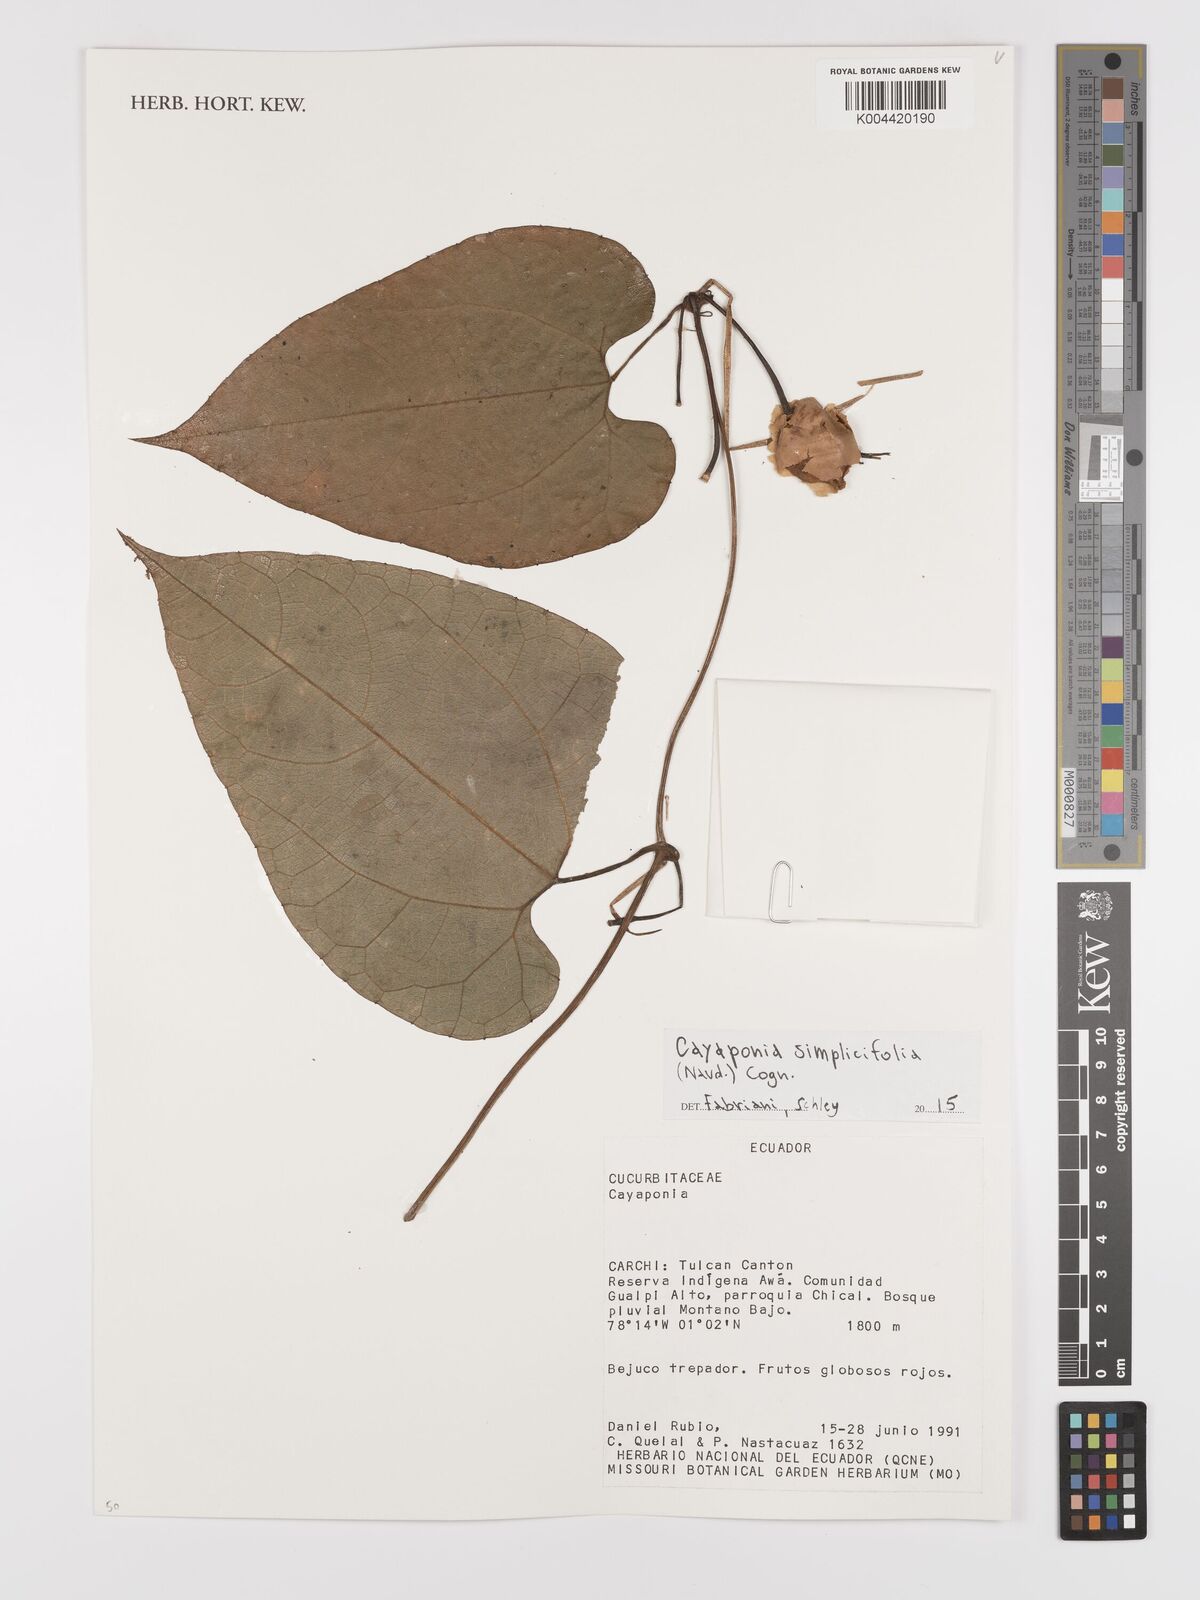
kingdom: Plantae
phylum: Tracheophyta
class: Magnoliopsida
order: Cucurbitales
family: Cucurbitaceae
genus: Cayaponia
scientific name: Cayaponia simplicifolia
